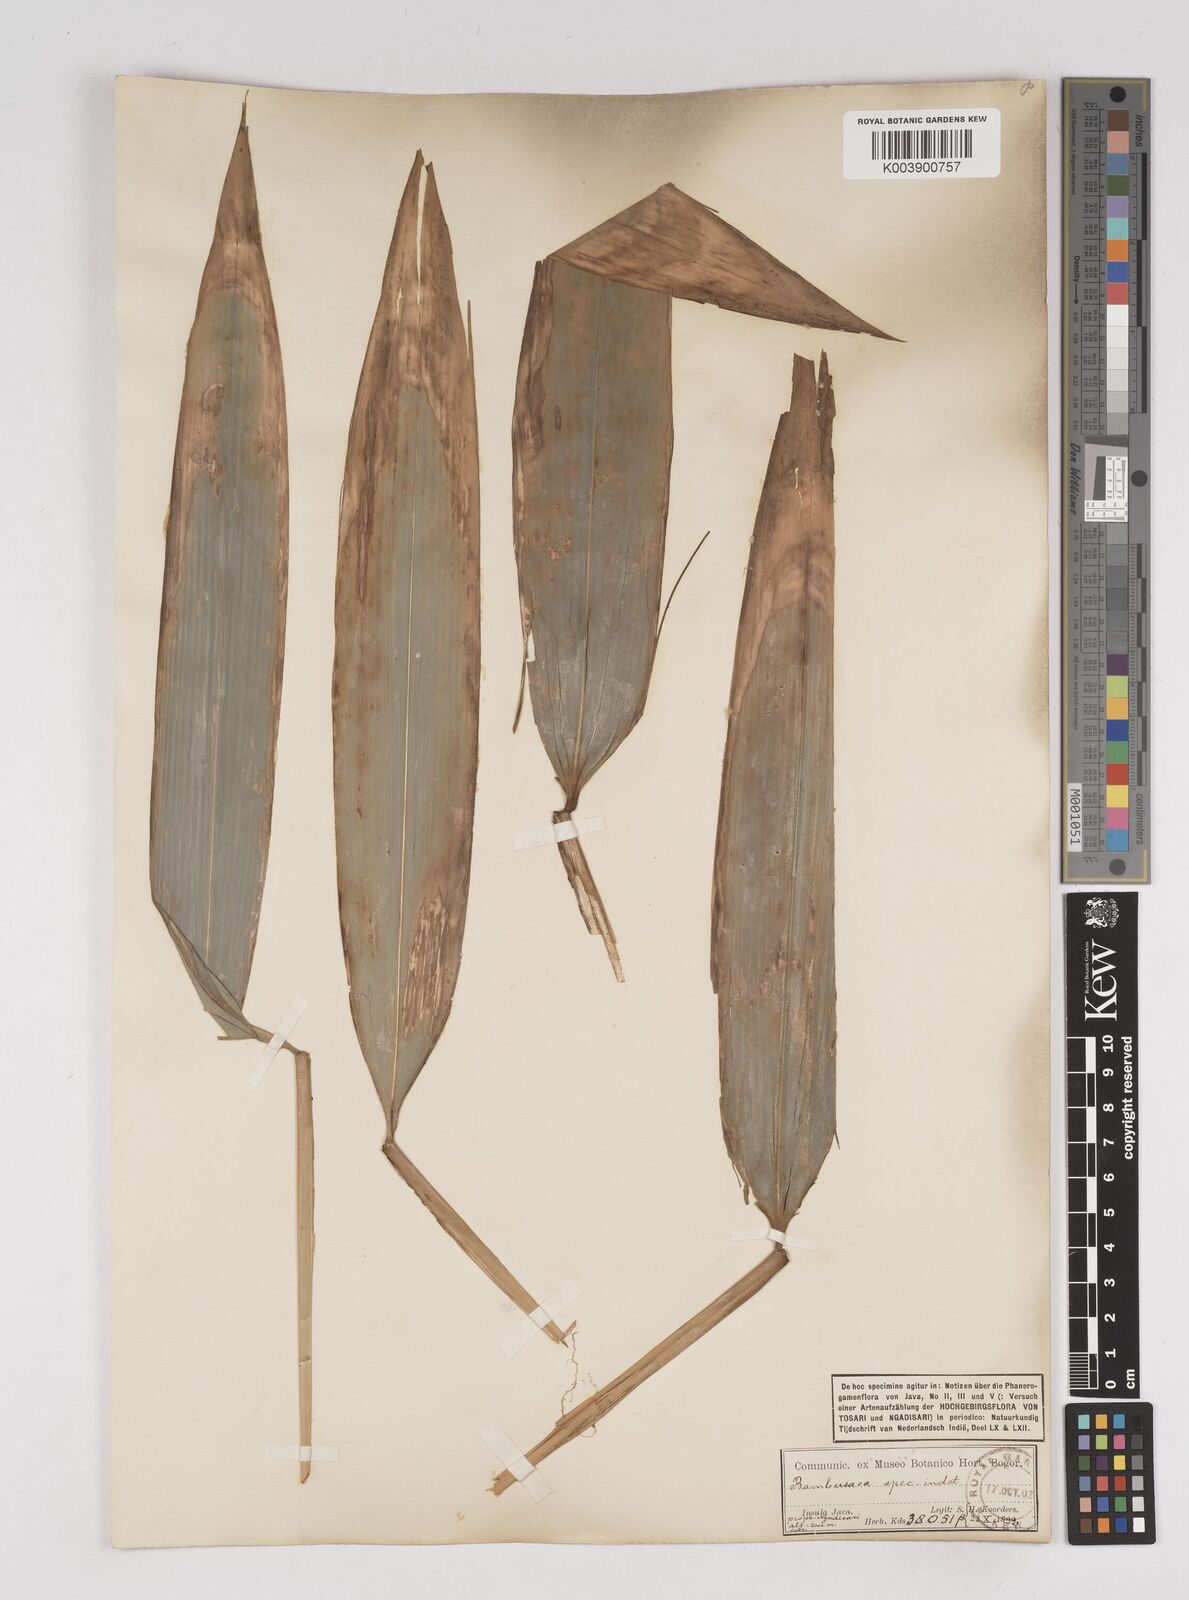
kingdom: Plantae
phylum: Tracheophyta
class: Liliopsida
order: Poales
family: Poaceae
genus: Gigantochloa
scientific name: Gigantochloa
